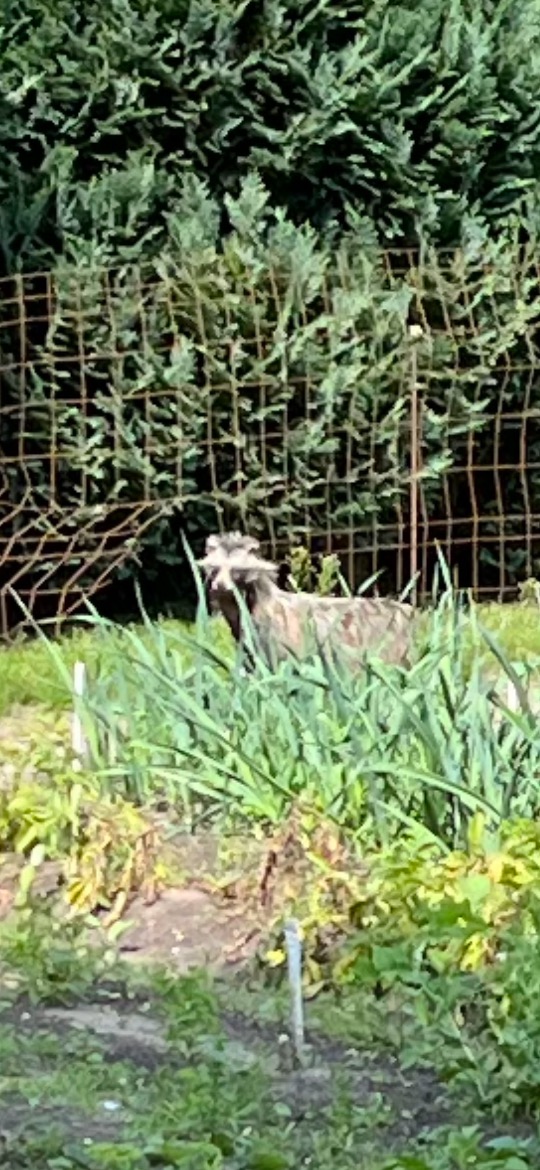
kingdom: Animalia
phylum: Chordata
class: Mammalia
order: Carnivora
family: Canidae
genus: Nyctereutes
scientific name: Nyctereutes procyonoides
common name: Mårhund
